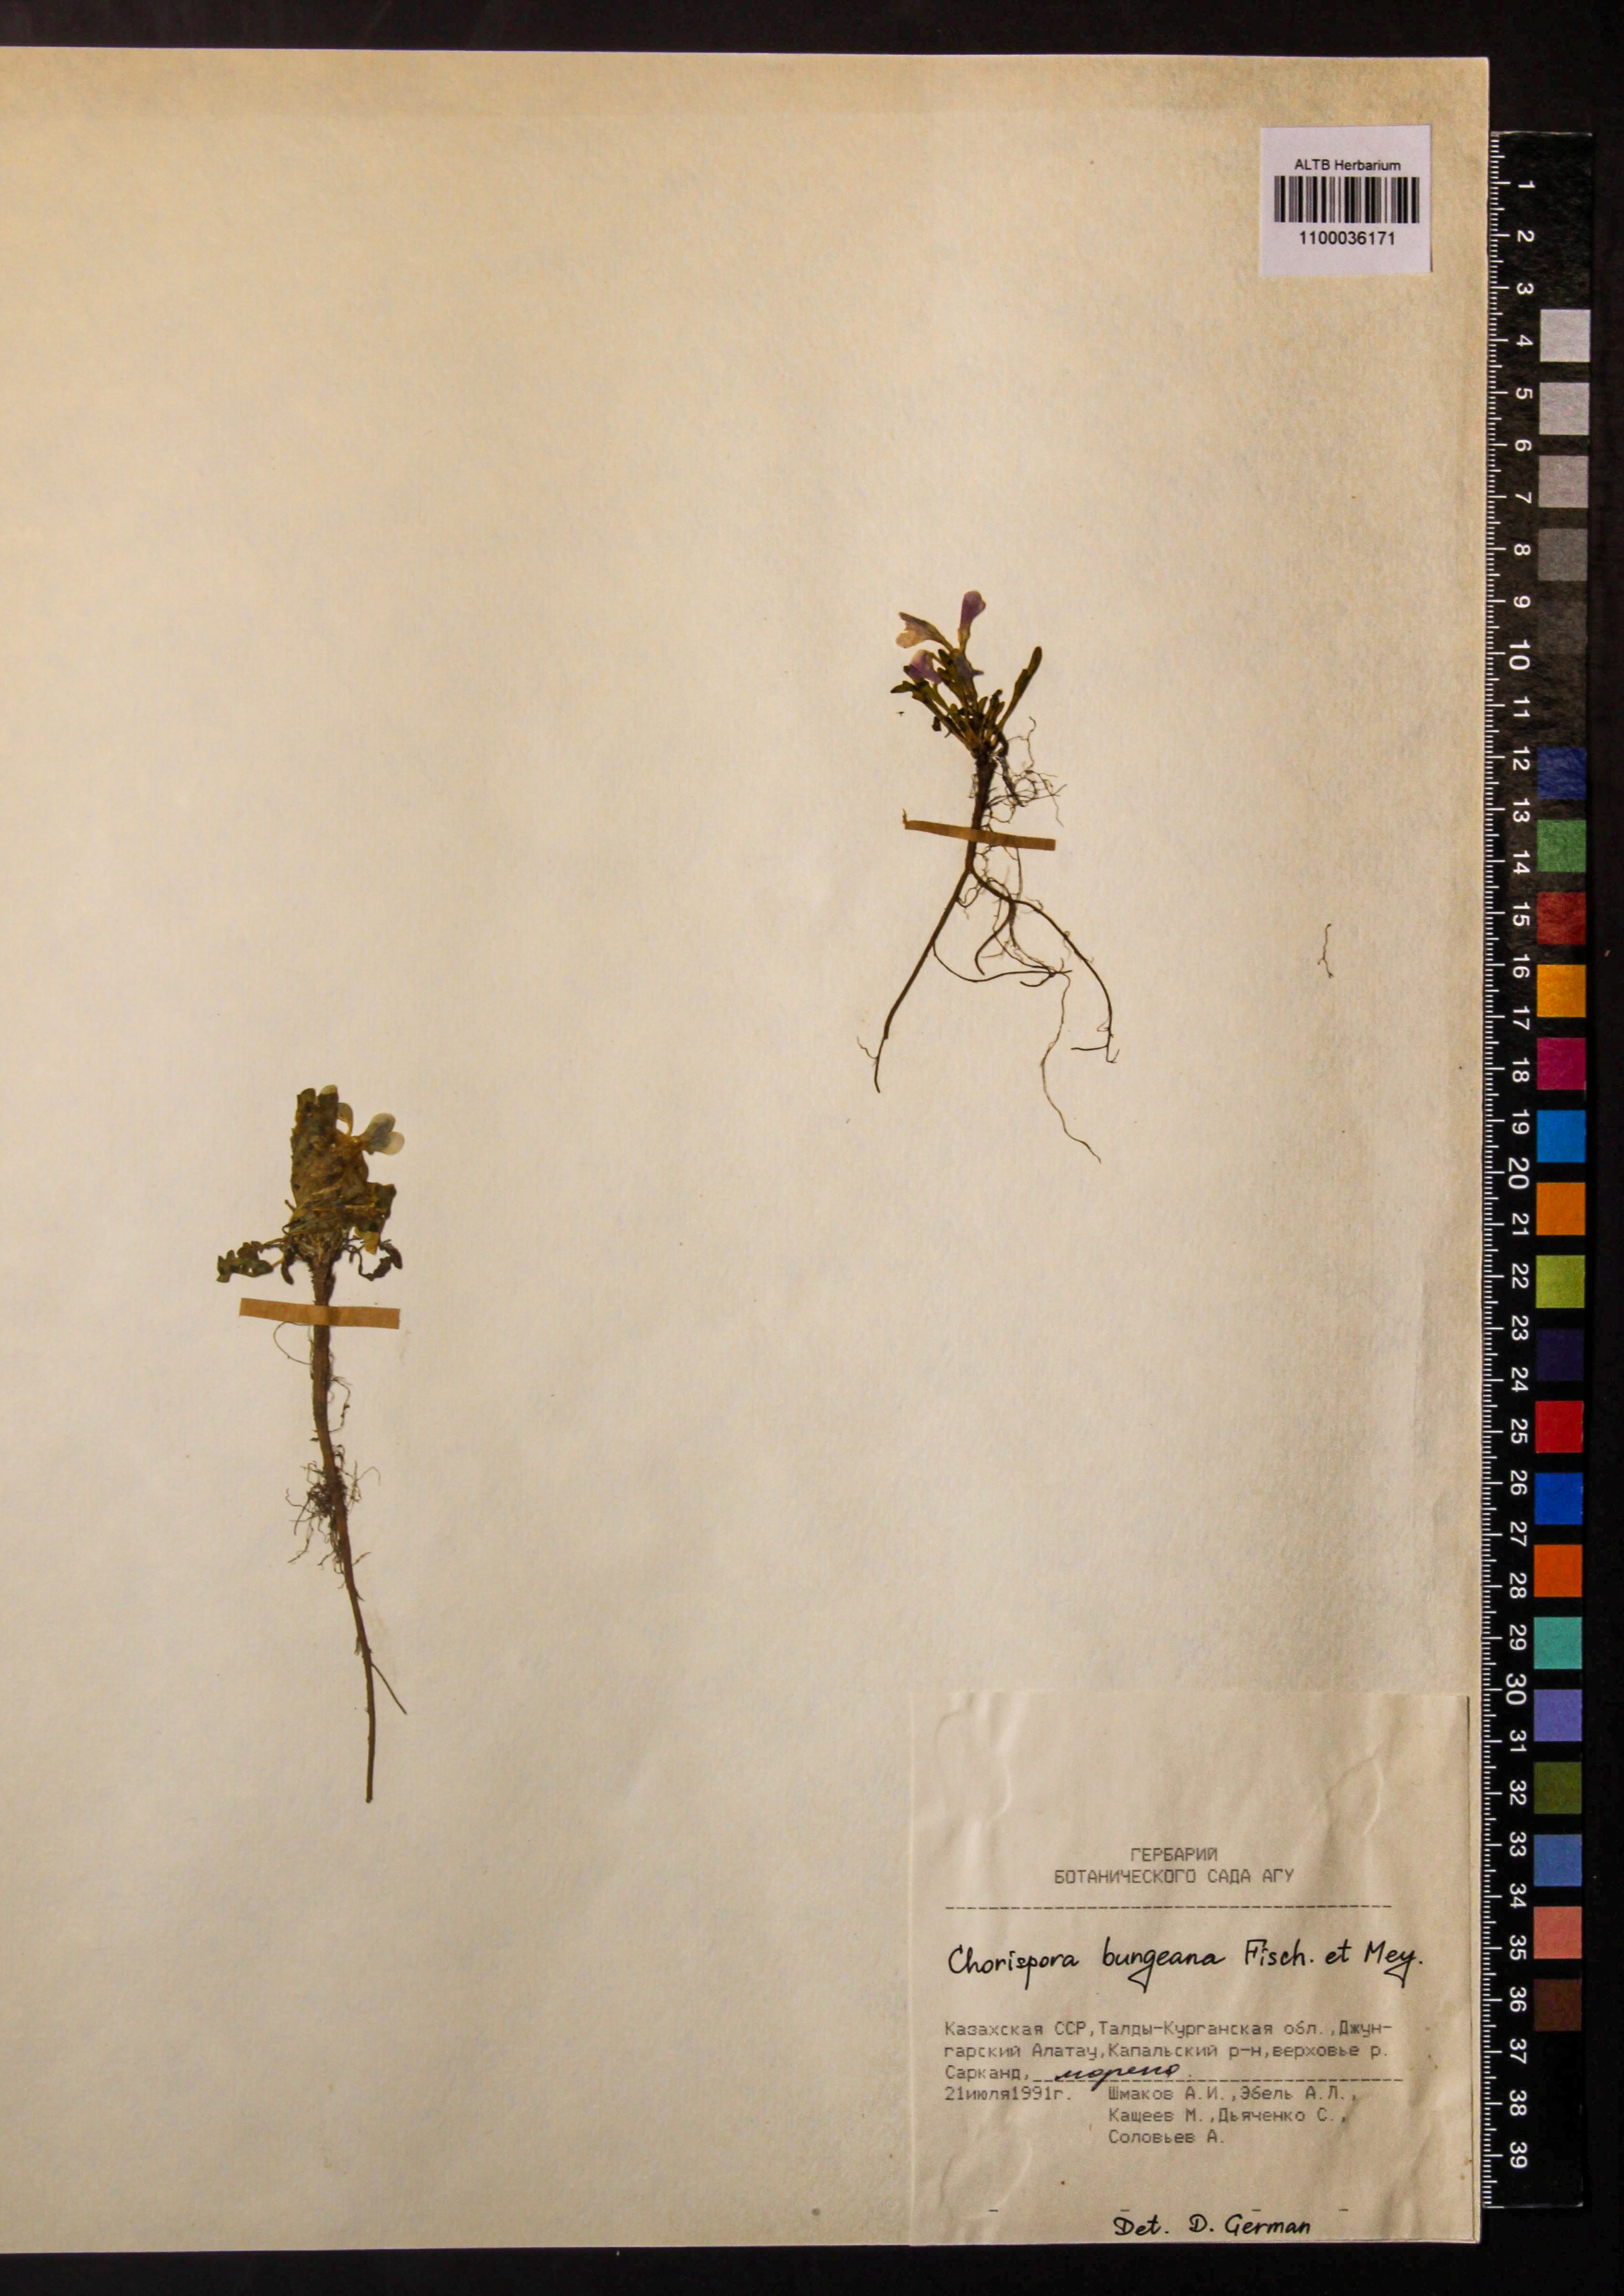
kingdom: Plantae
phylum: Tracheophyta
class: Magnoliopsida
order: Brassicales
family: Brassicaceae
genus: Chorispora
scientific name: Chorispora bungeana
